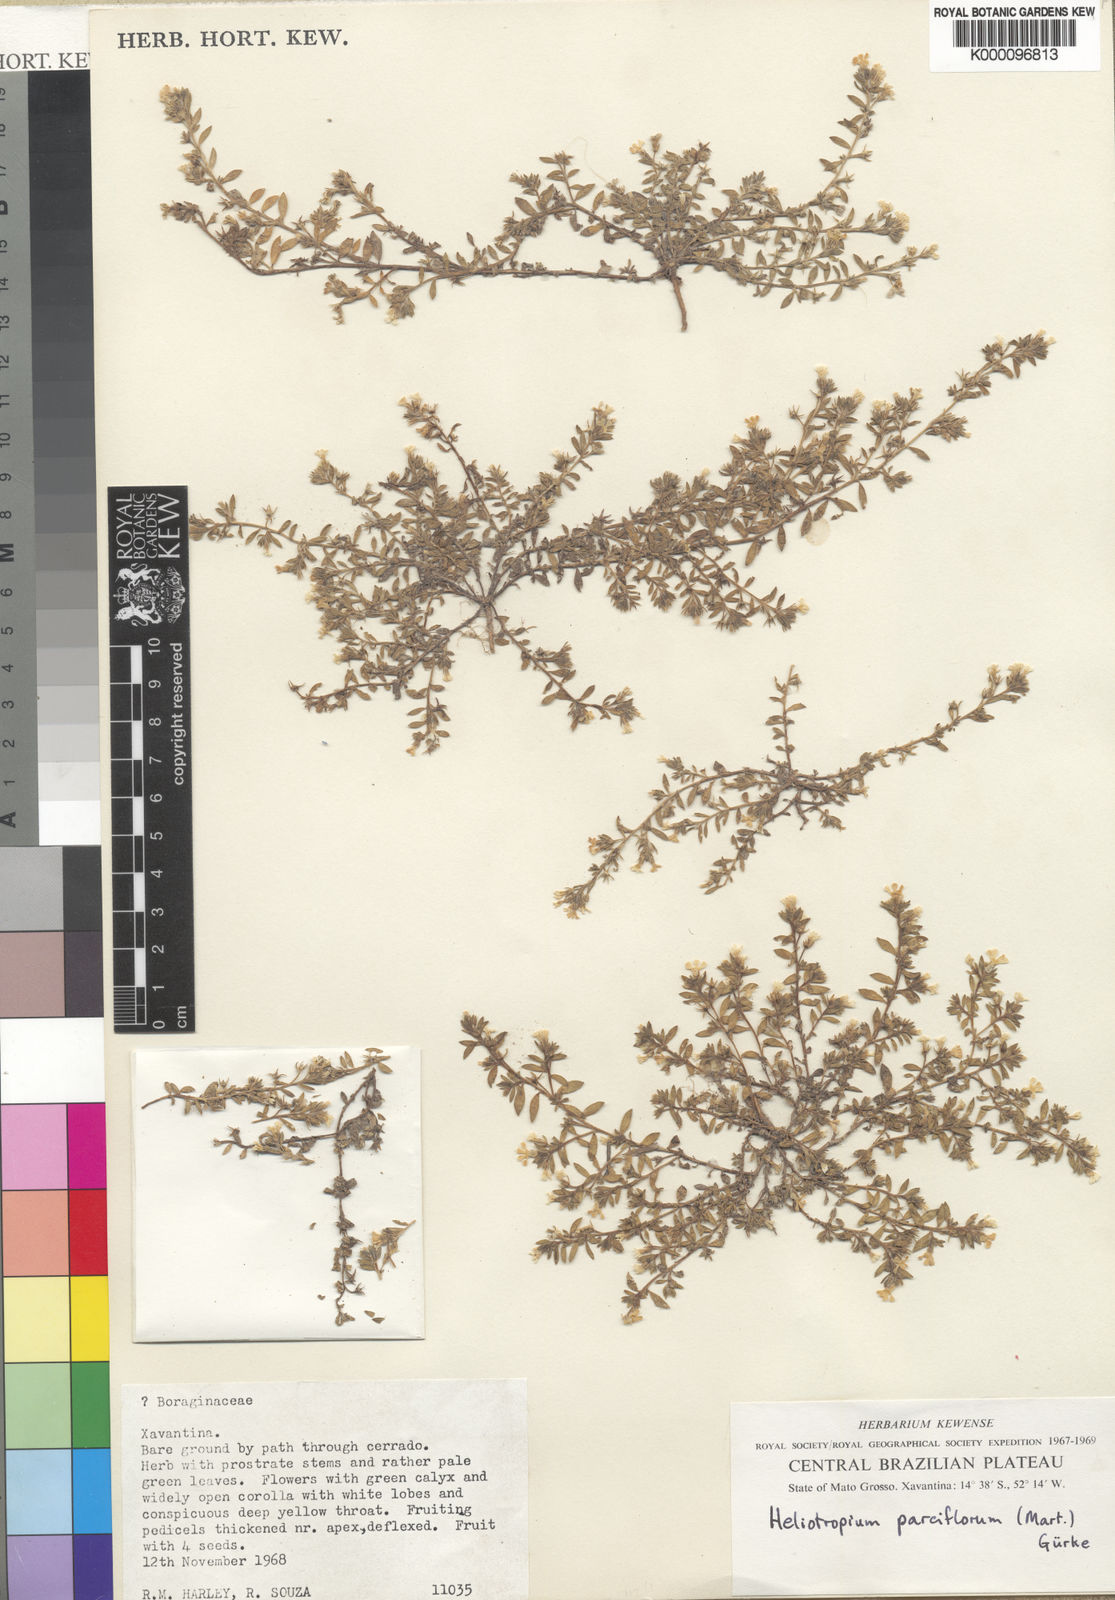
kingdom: Plantae
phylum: Tracheophyta
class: Magnoliopsida
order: Boraginales
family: Heliotropiaceae
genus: Heliotropium
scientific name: Heliotropium
